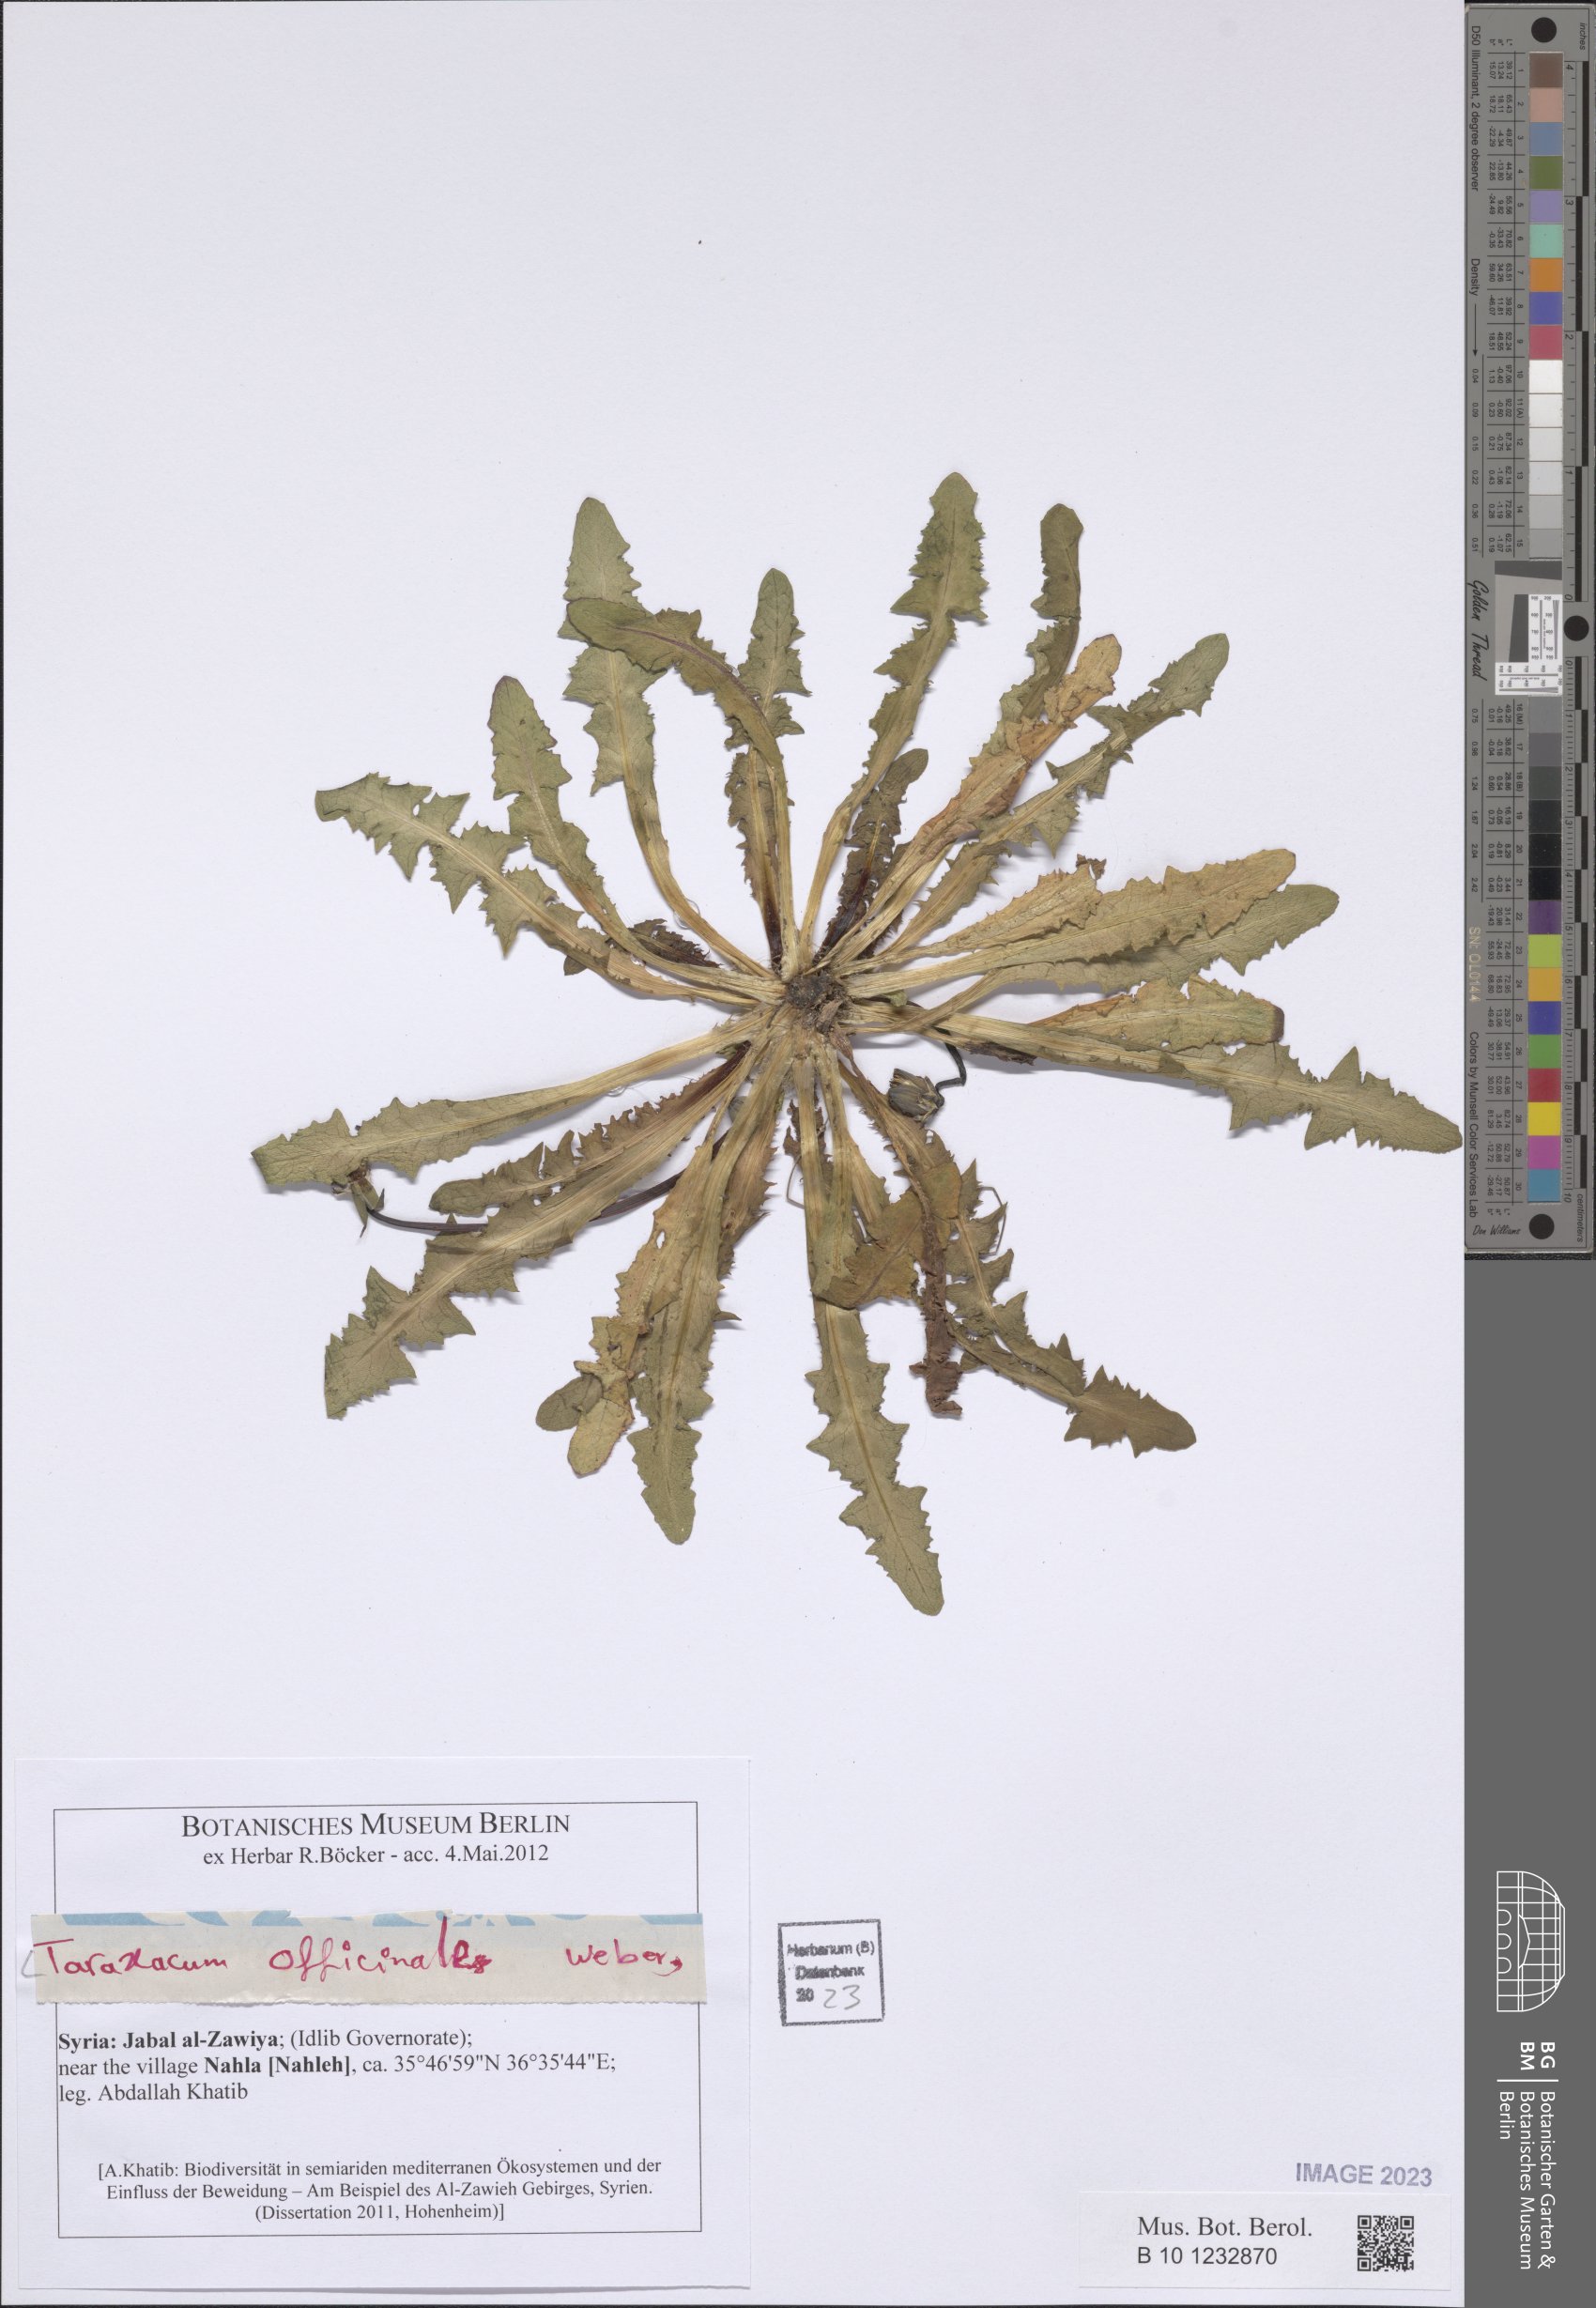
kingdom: Plantae
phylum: Tracheophyta
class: Magnoliopsida
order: Asterales
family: Asteraceae
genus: Taraxacum
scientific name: Taraxacum officinale
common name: Common dandelion
